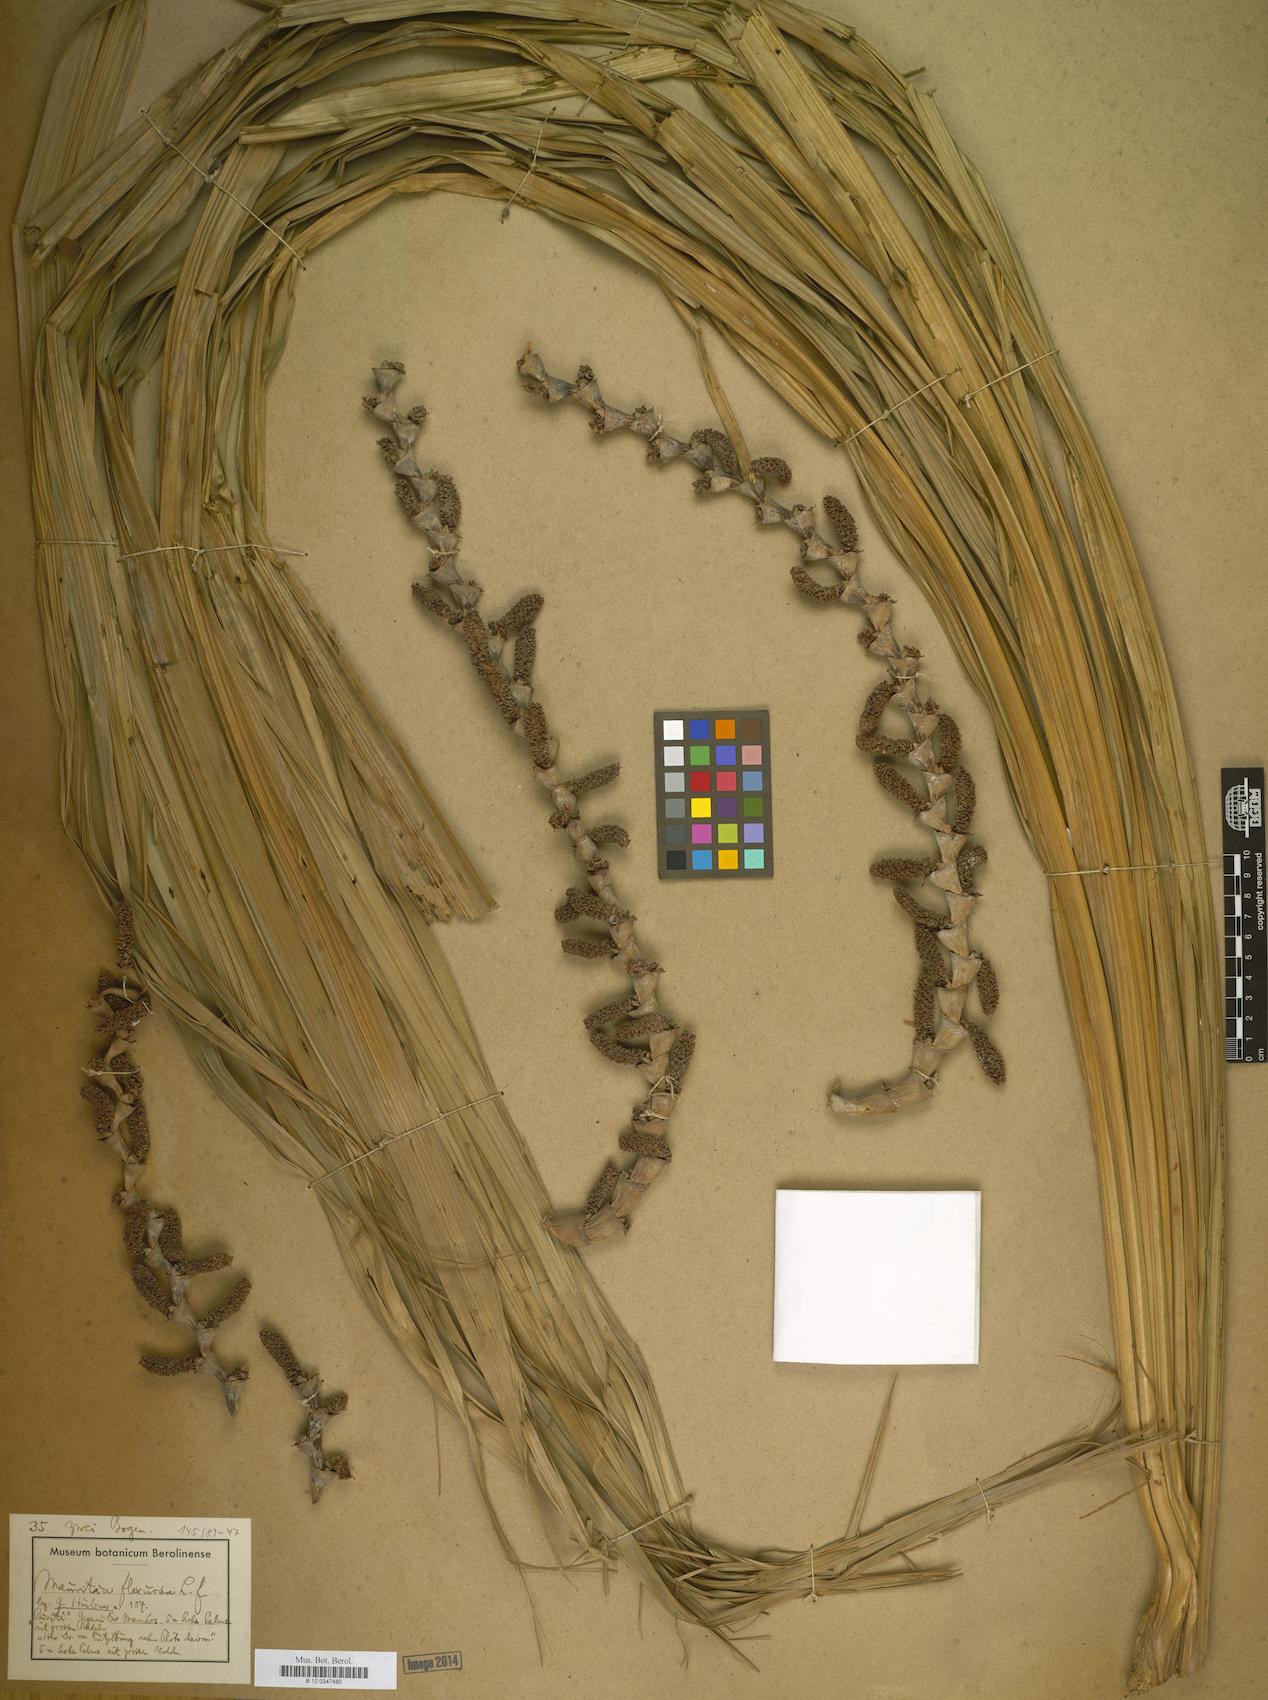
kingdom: Plantae
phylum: Tracheophyta
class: Liliopsida
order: Arecales
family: Arecaceae
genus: Mauritia
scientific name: Mauritia flexuosa
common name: Tree-of-life
